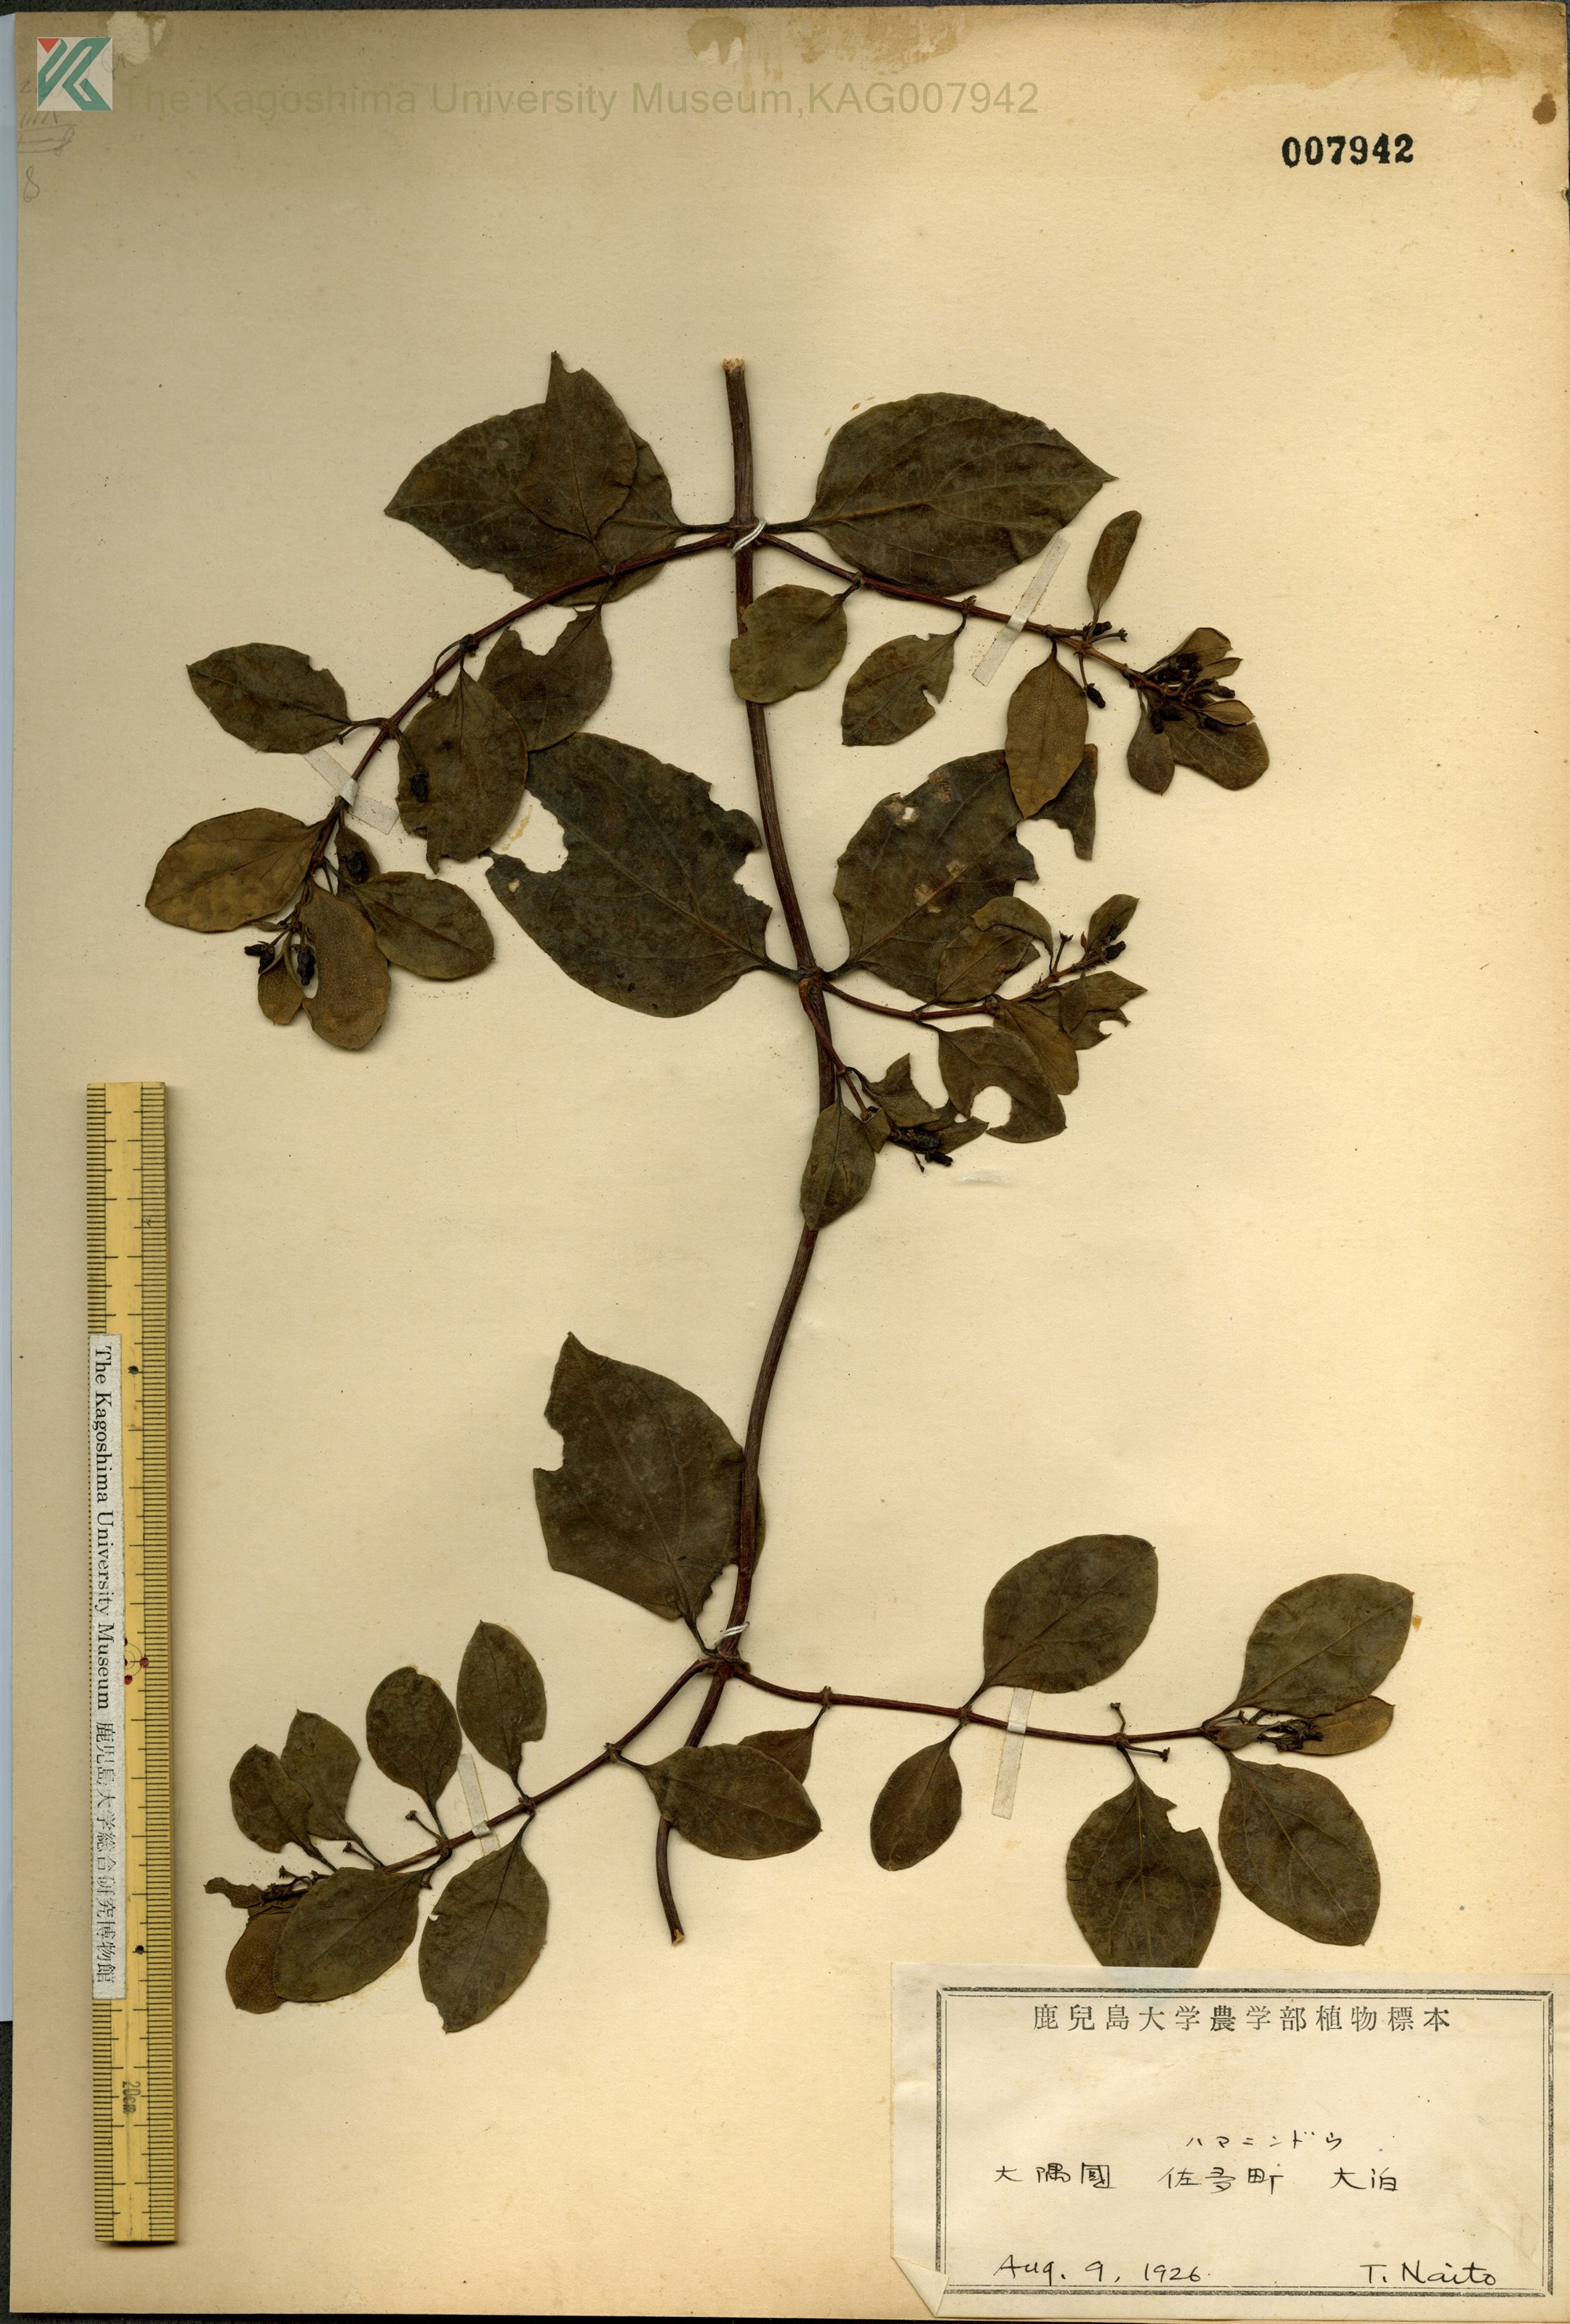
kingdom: Plantae
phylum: Tracheophyta
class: Magnoliopsida
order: Dipsacales
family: Caprifoliaceae
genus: Lonicera
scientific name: Lonicera affinis
